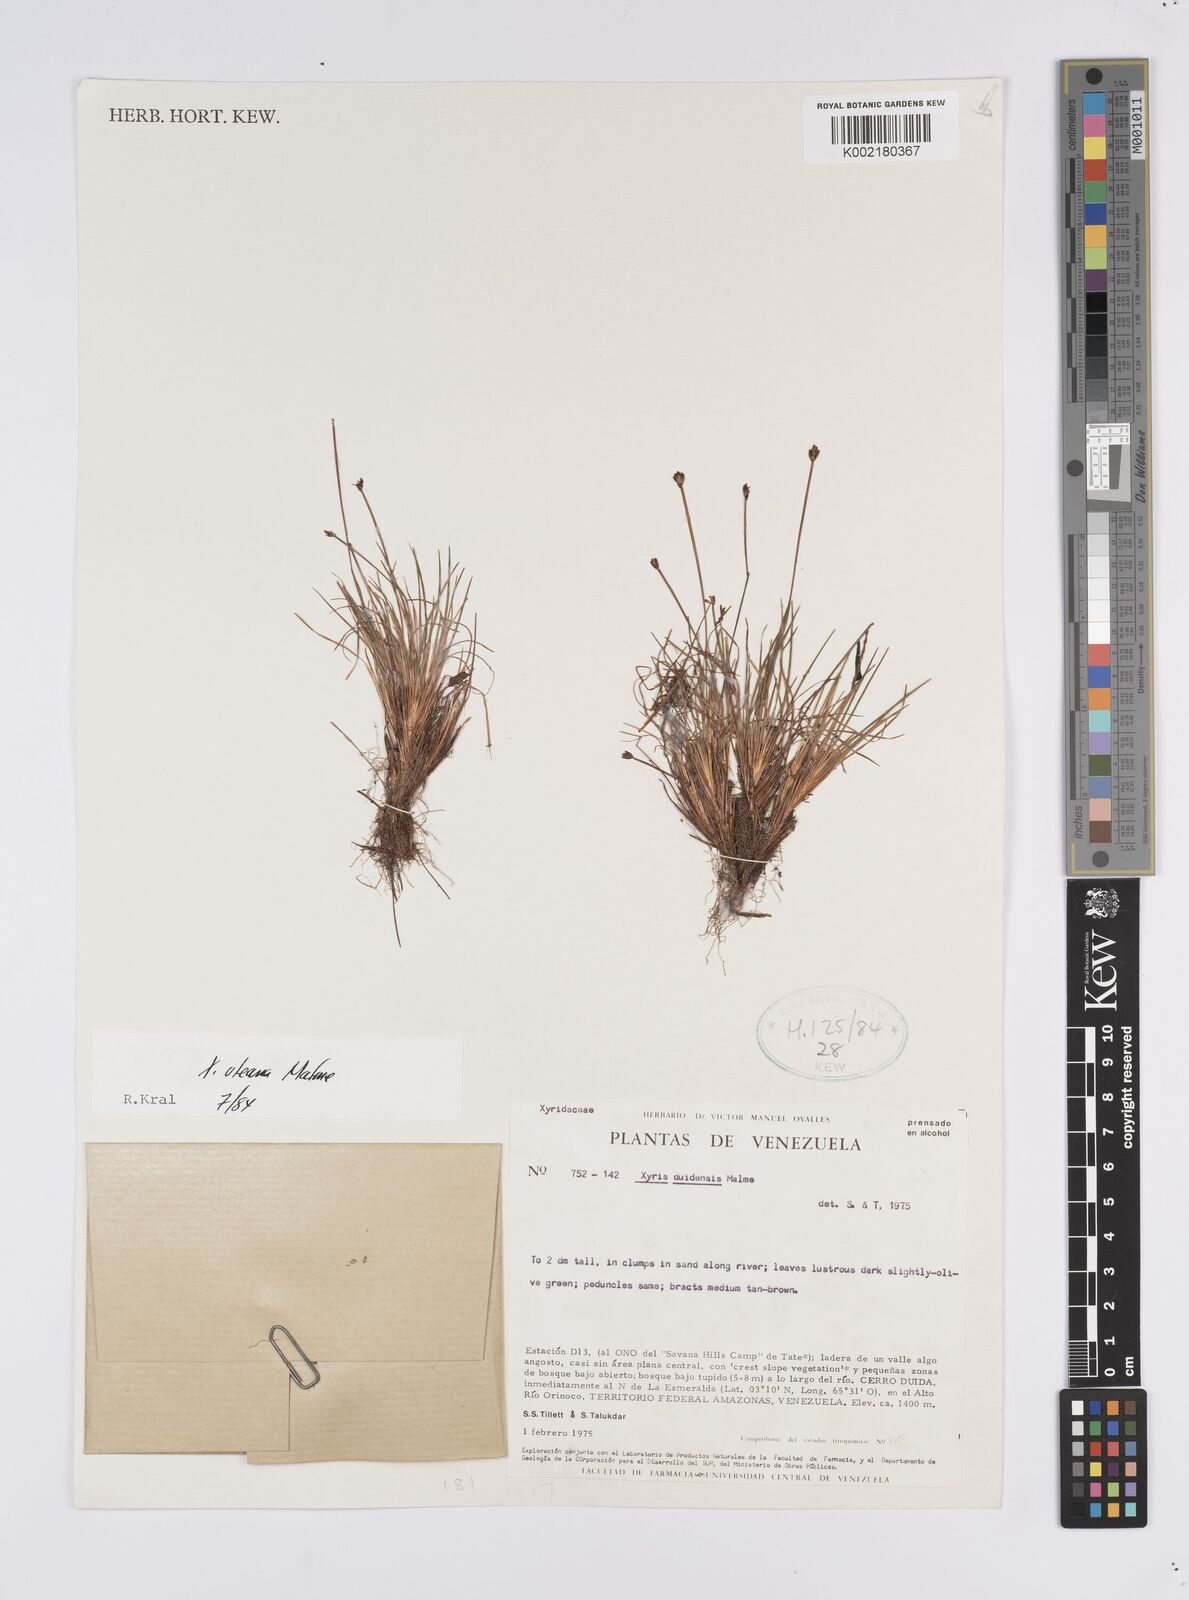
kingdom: Plantae
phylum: Tracheophyta
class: Liliopsida
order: Poales
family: Xyridaceae
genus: Xyris
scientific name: Xyris uleana
